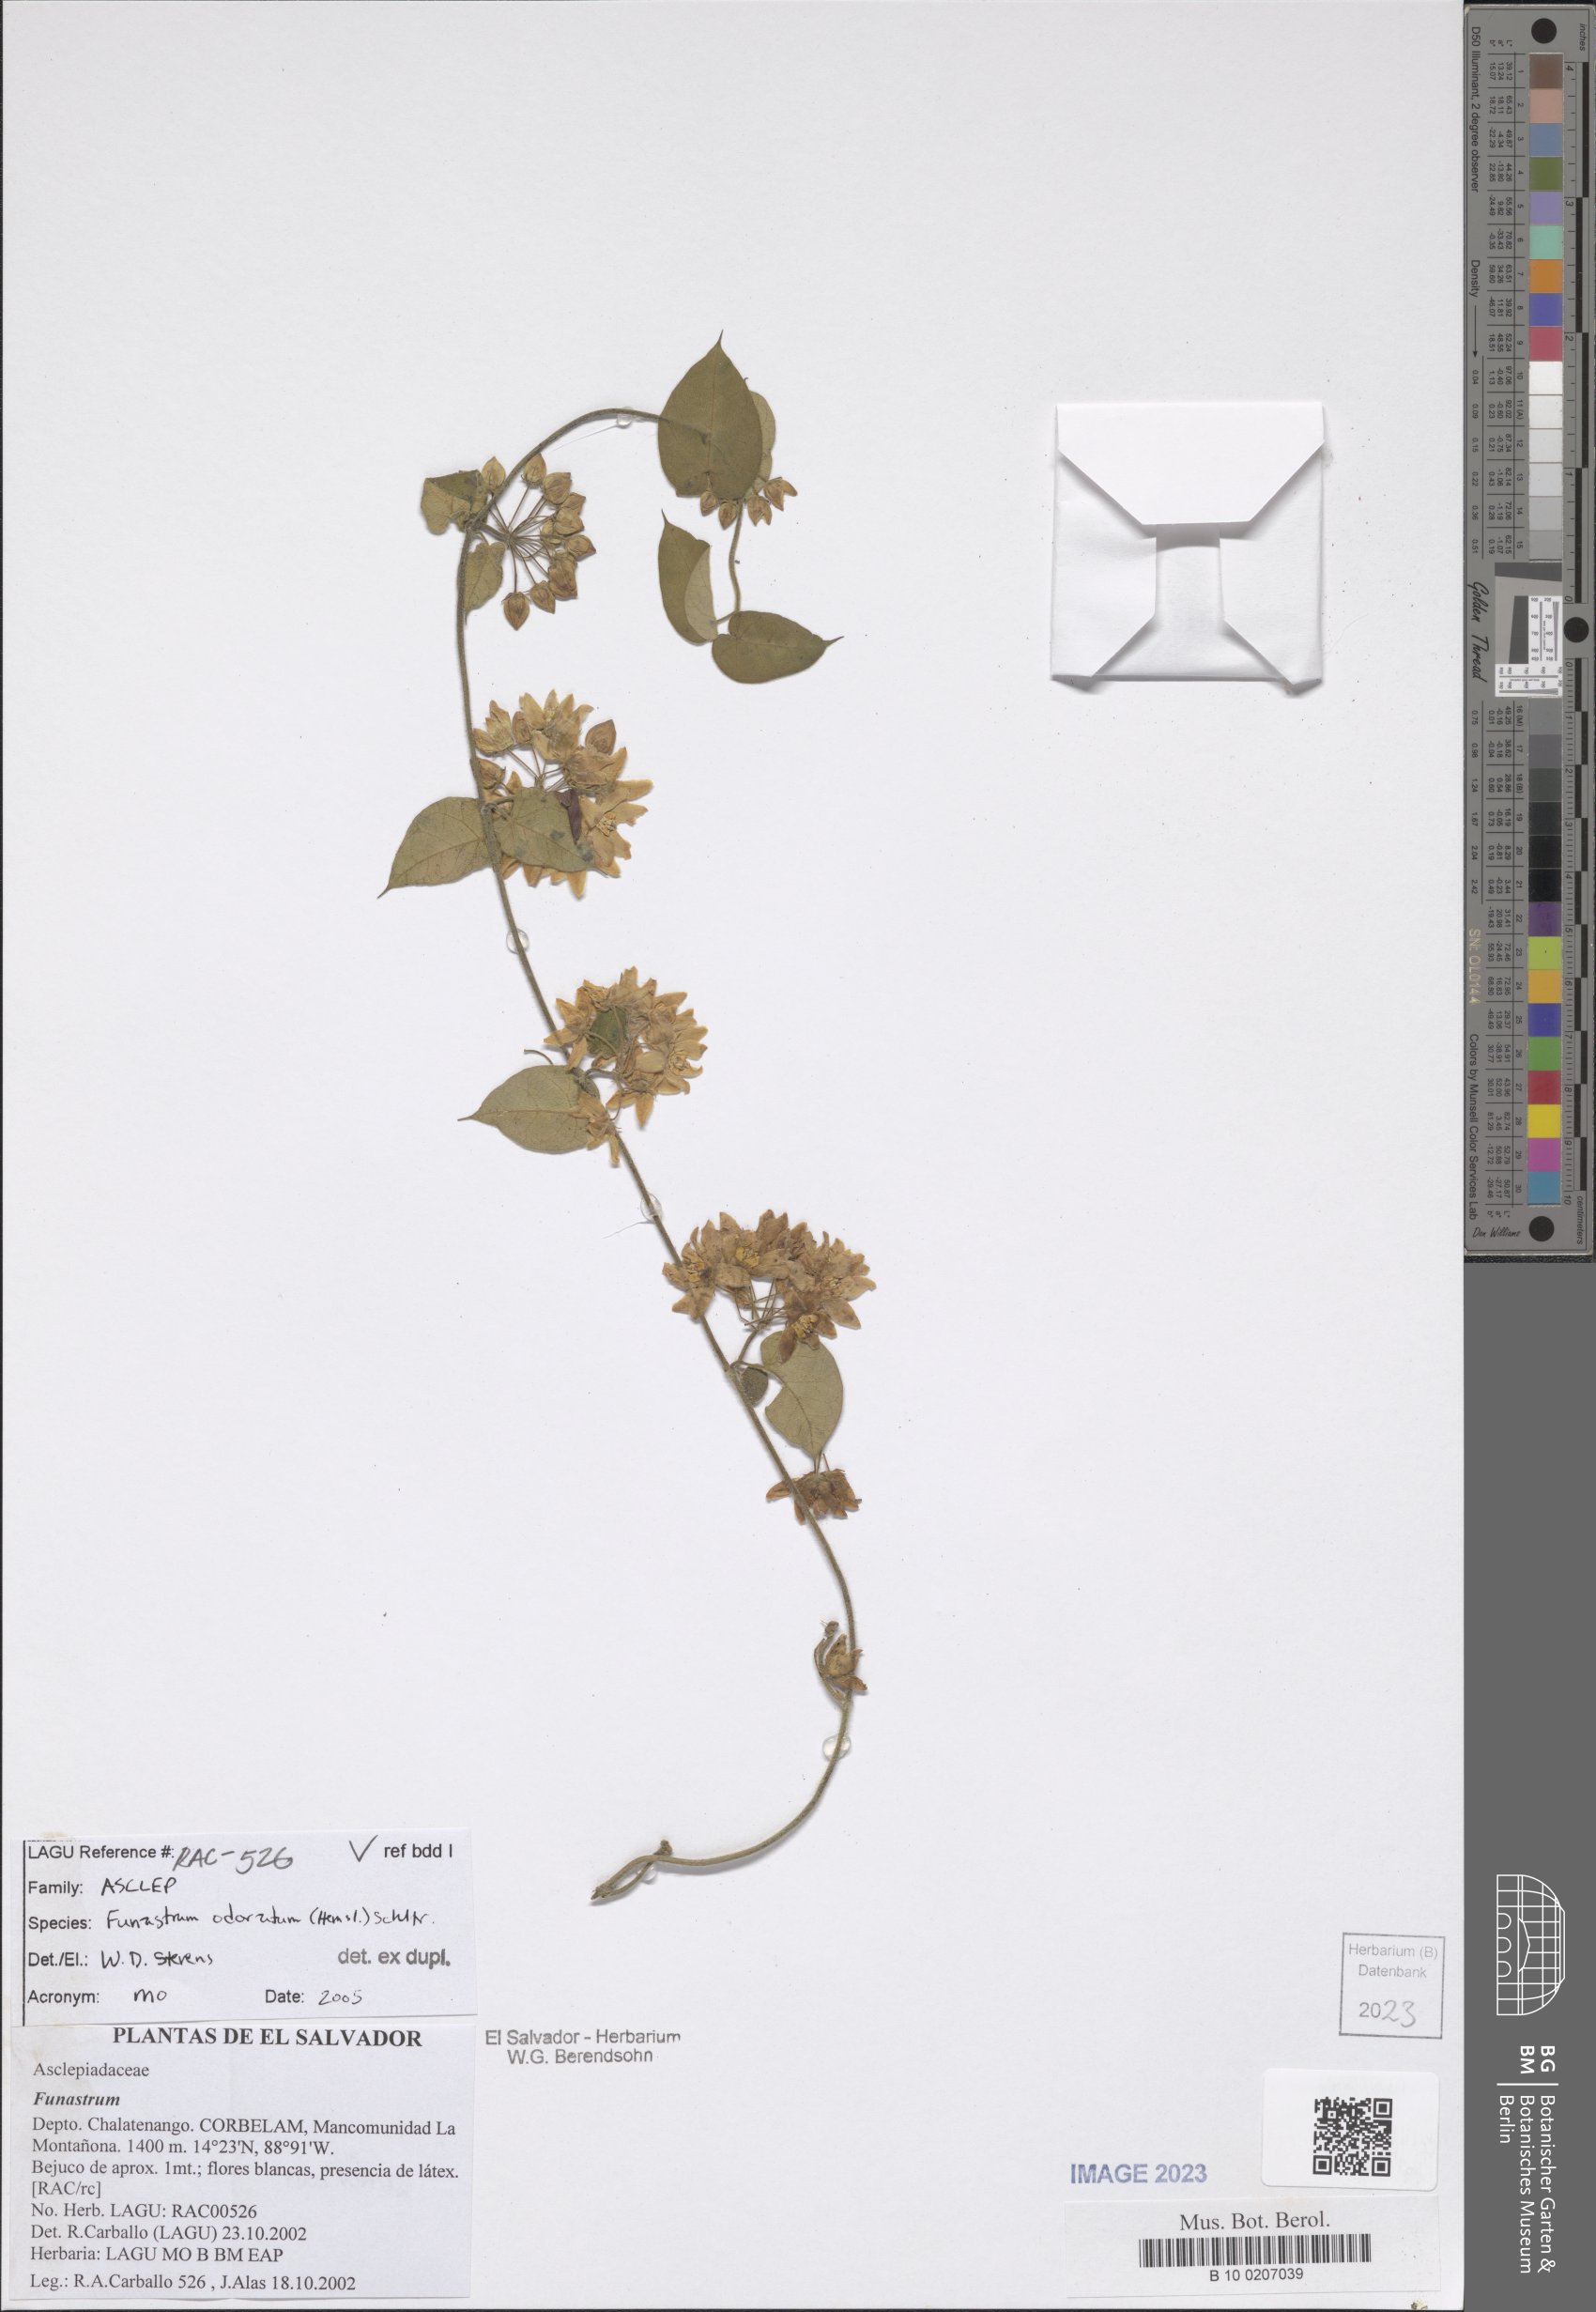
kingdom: Plantae
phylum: Tracheophyta
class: Magnoliopsida
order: Gentianales
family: Apocynaceae
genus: Funastrum
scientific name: Funastrum odoratum
